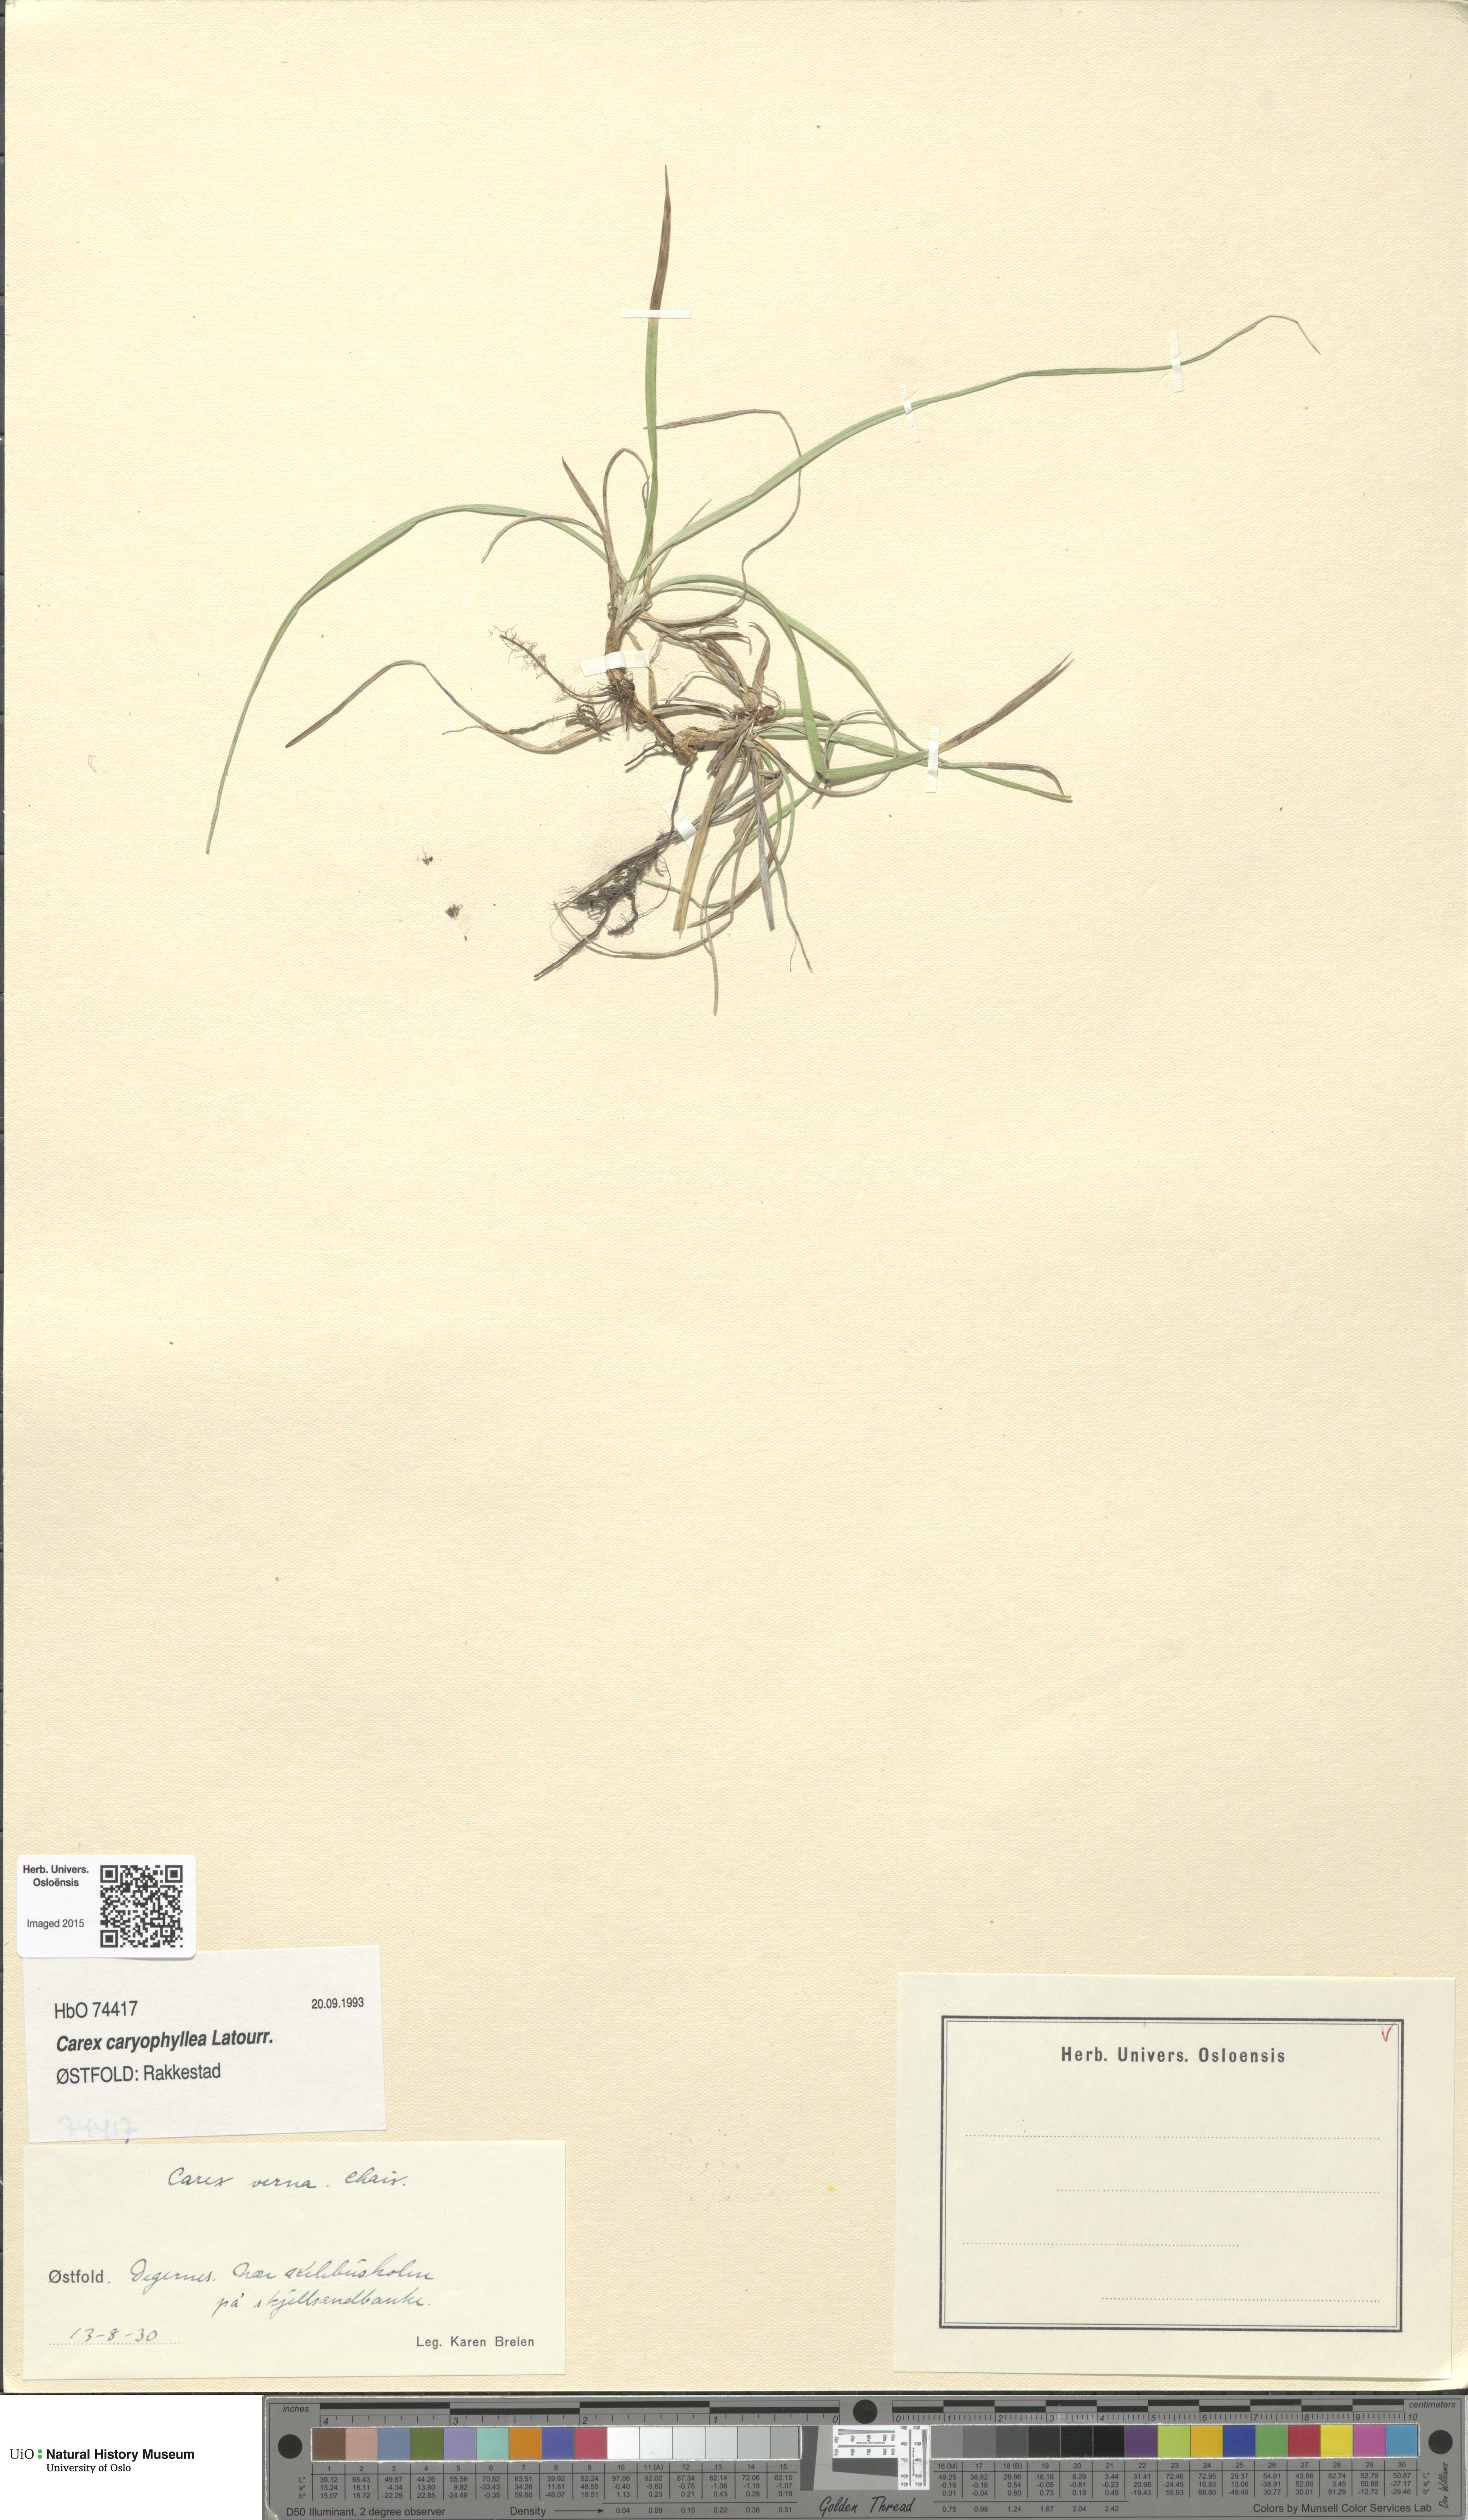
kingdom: Plantae
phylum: Tracheophyta
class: Liliopsida
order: Poales
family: Cyperaceae
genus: Carex
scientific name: Carex caryophyllea
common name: Spring sedge
